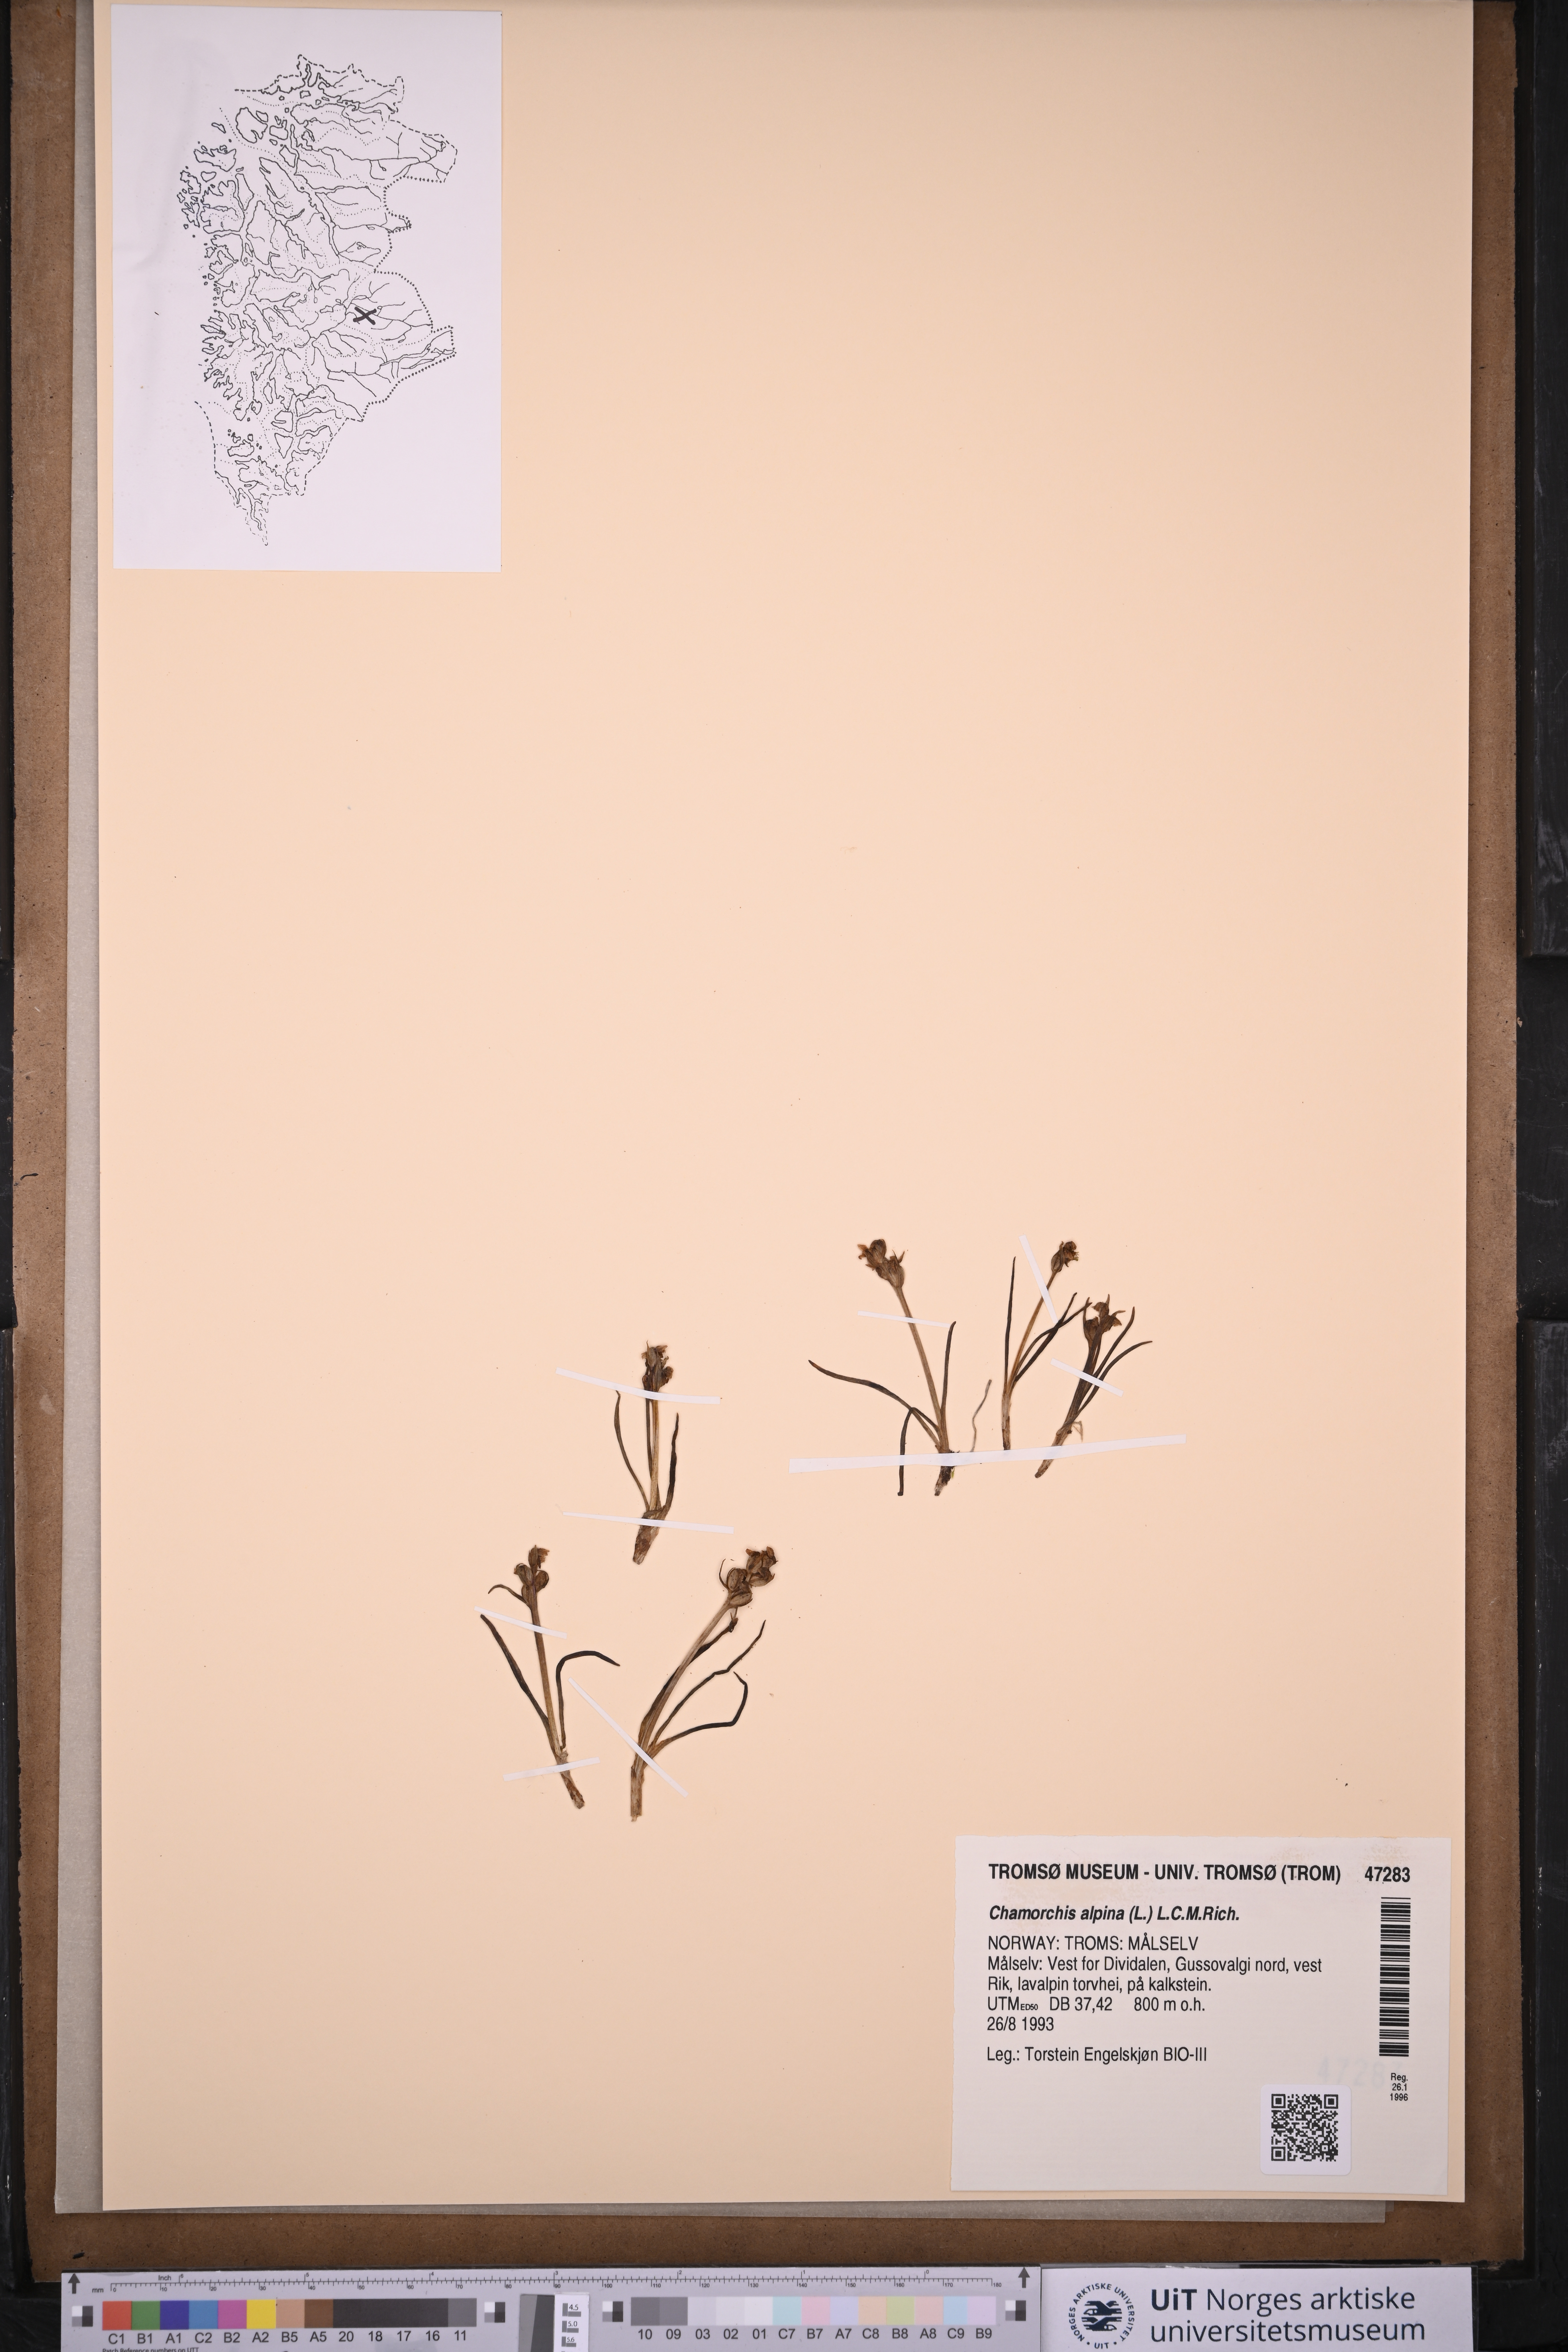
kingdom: Plantae
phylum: Tracheophyta
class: Liliopsida
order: Asparagales
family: Orchidaceae
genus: Chamorchis
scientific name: Chamorchis alpina
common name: Alpine chamorchis
